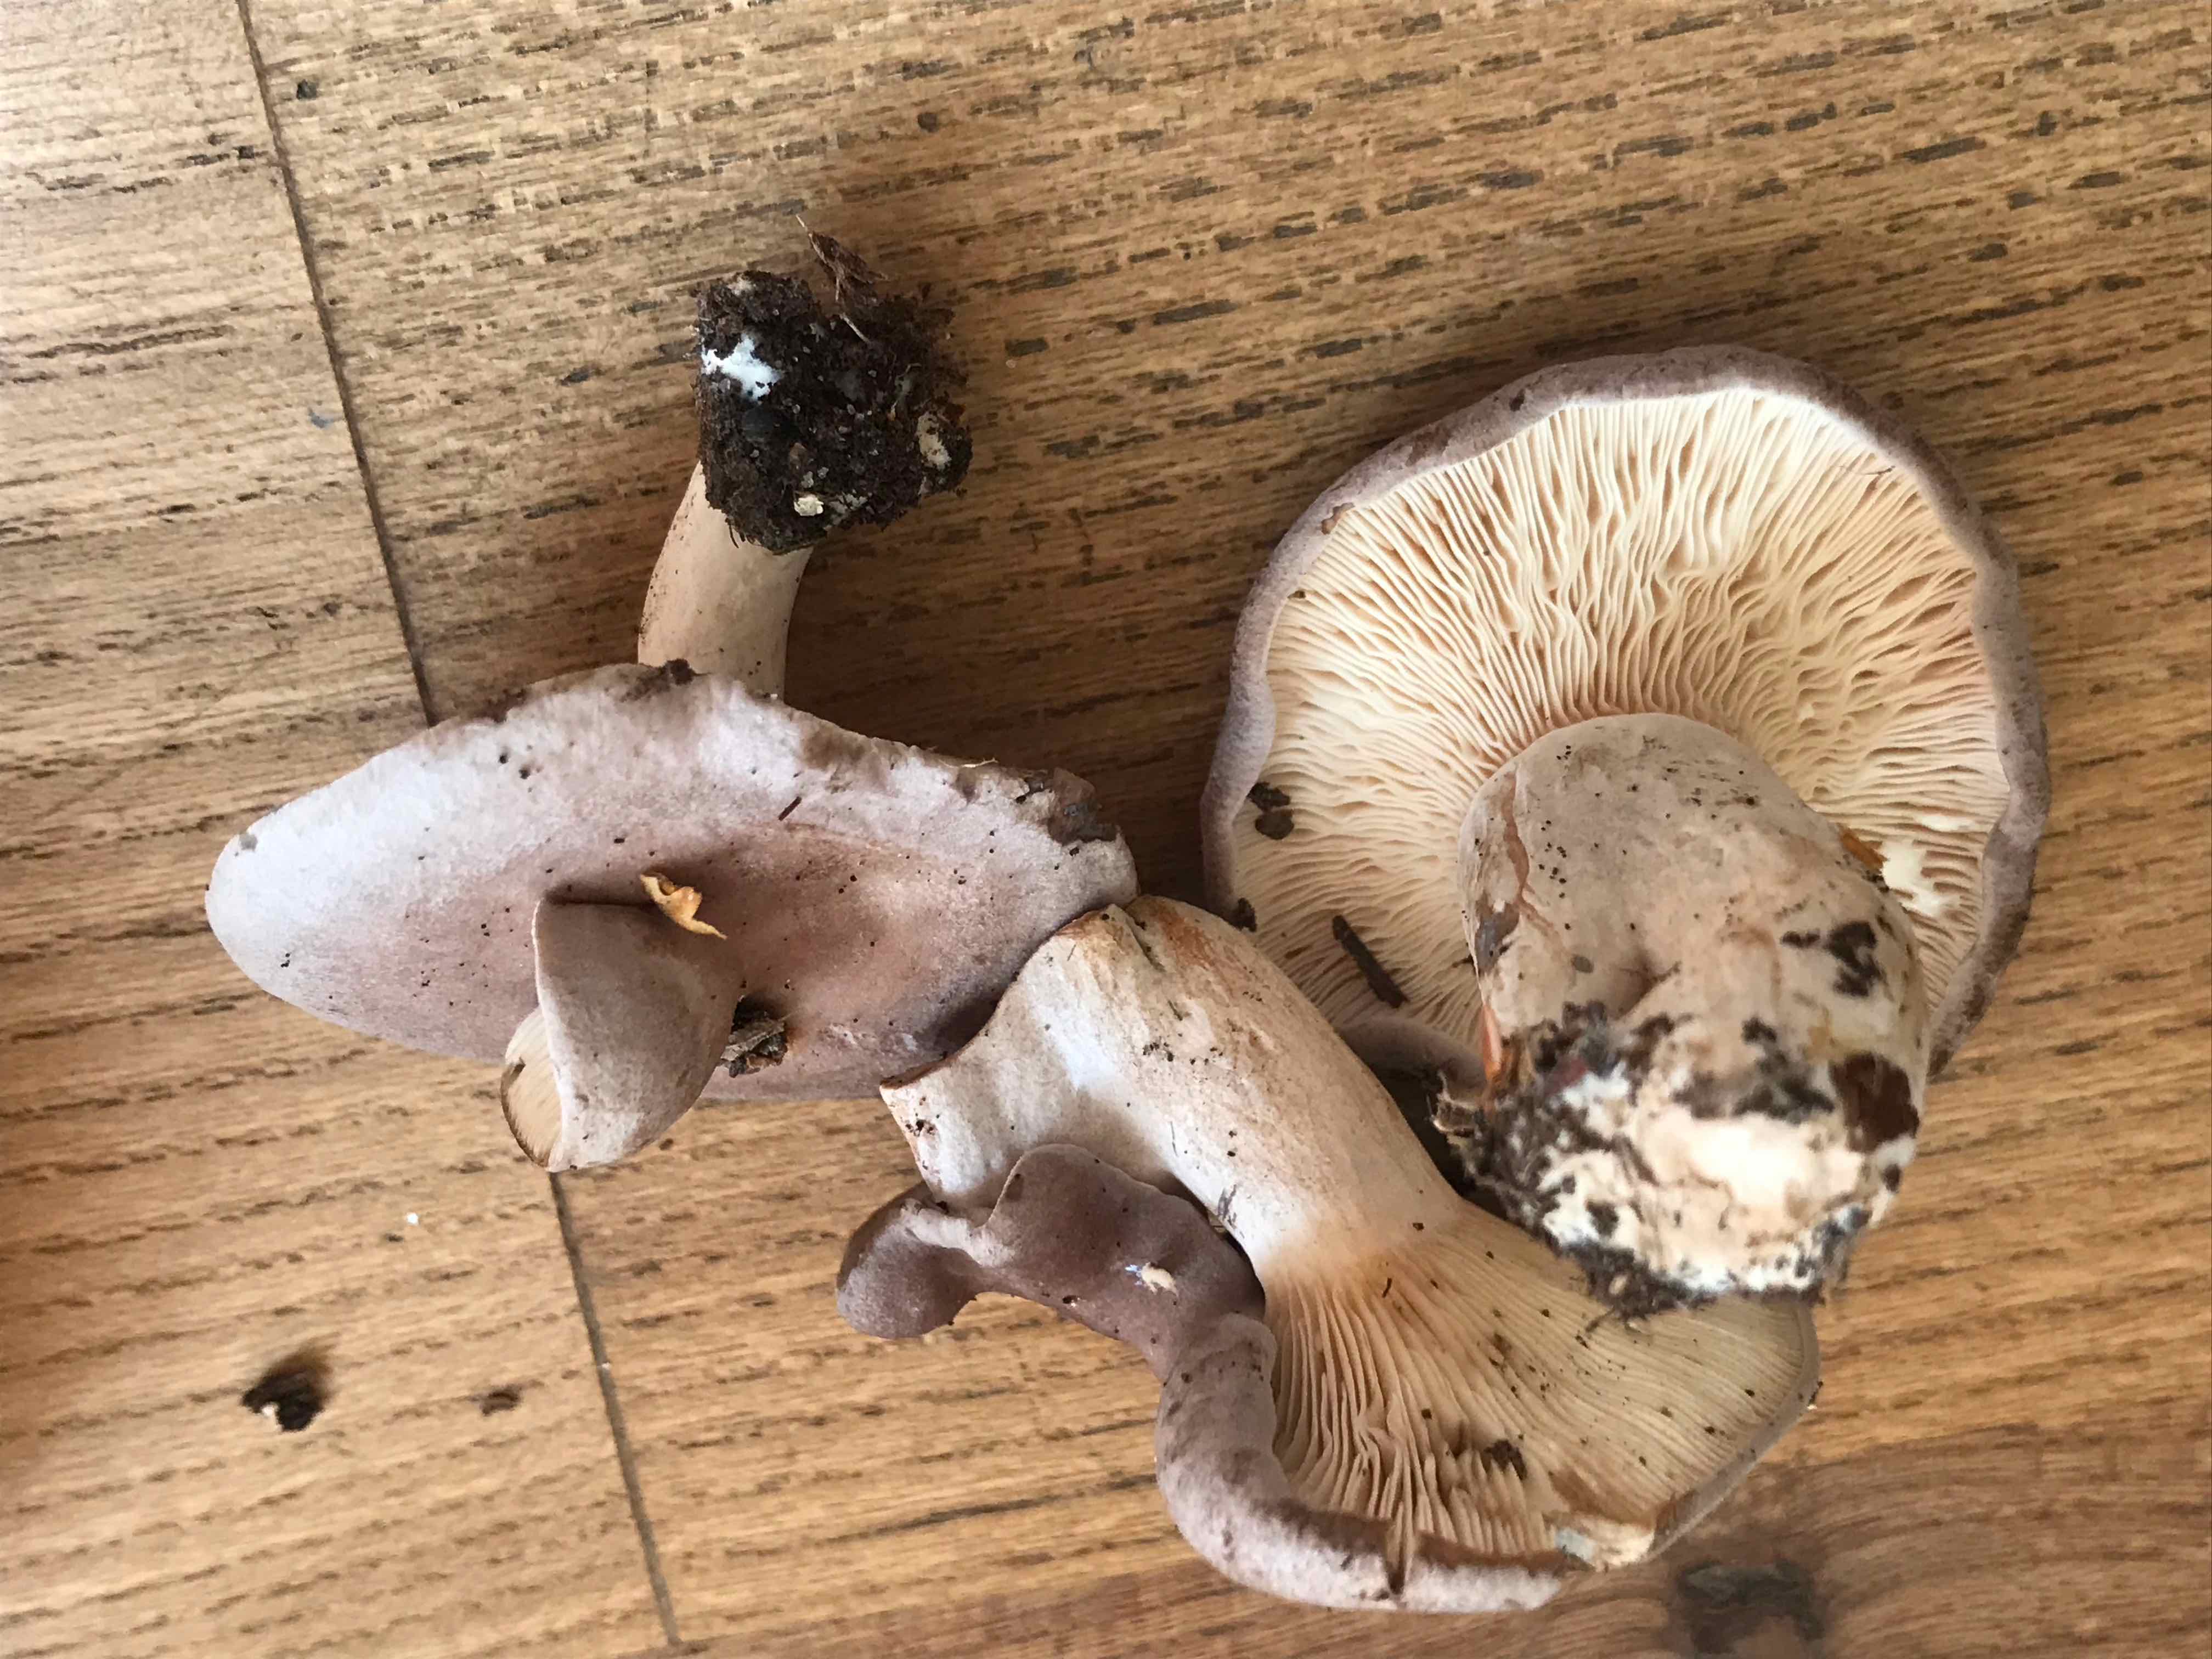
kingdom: Fungi
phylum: Basidiomycota
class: Agaricomycetes
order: Russulales
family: Russulaceae
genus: Lactarius
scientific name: Lactarius vietus
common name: violetgrå mælkehat
